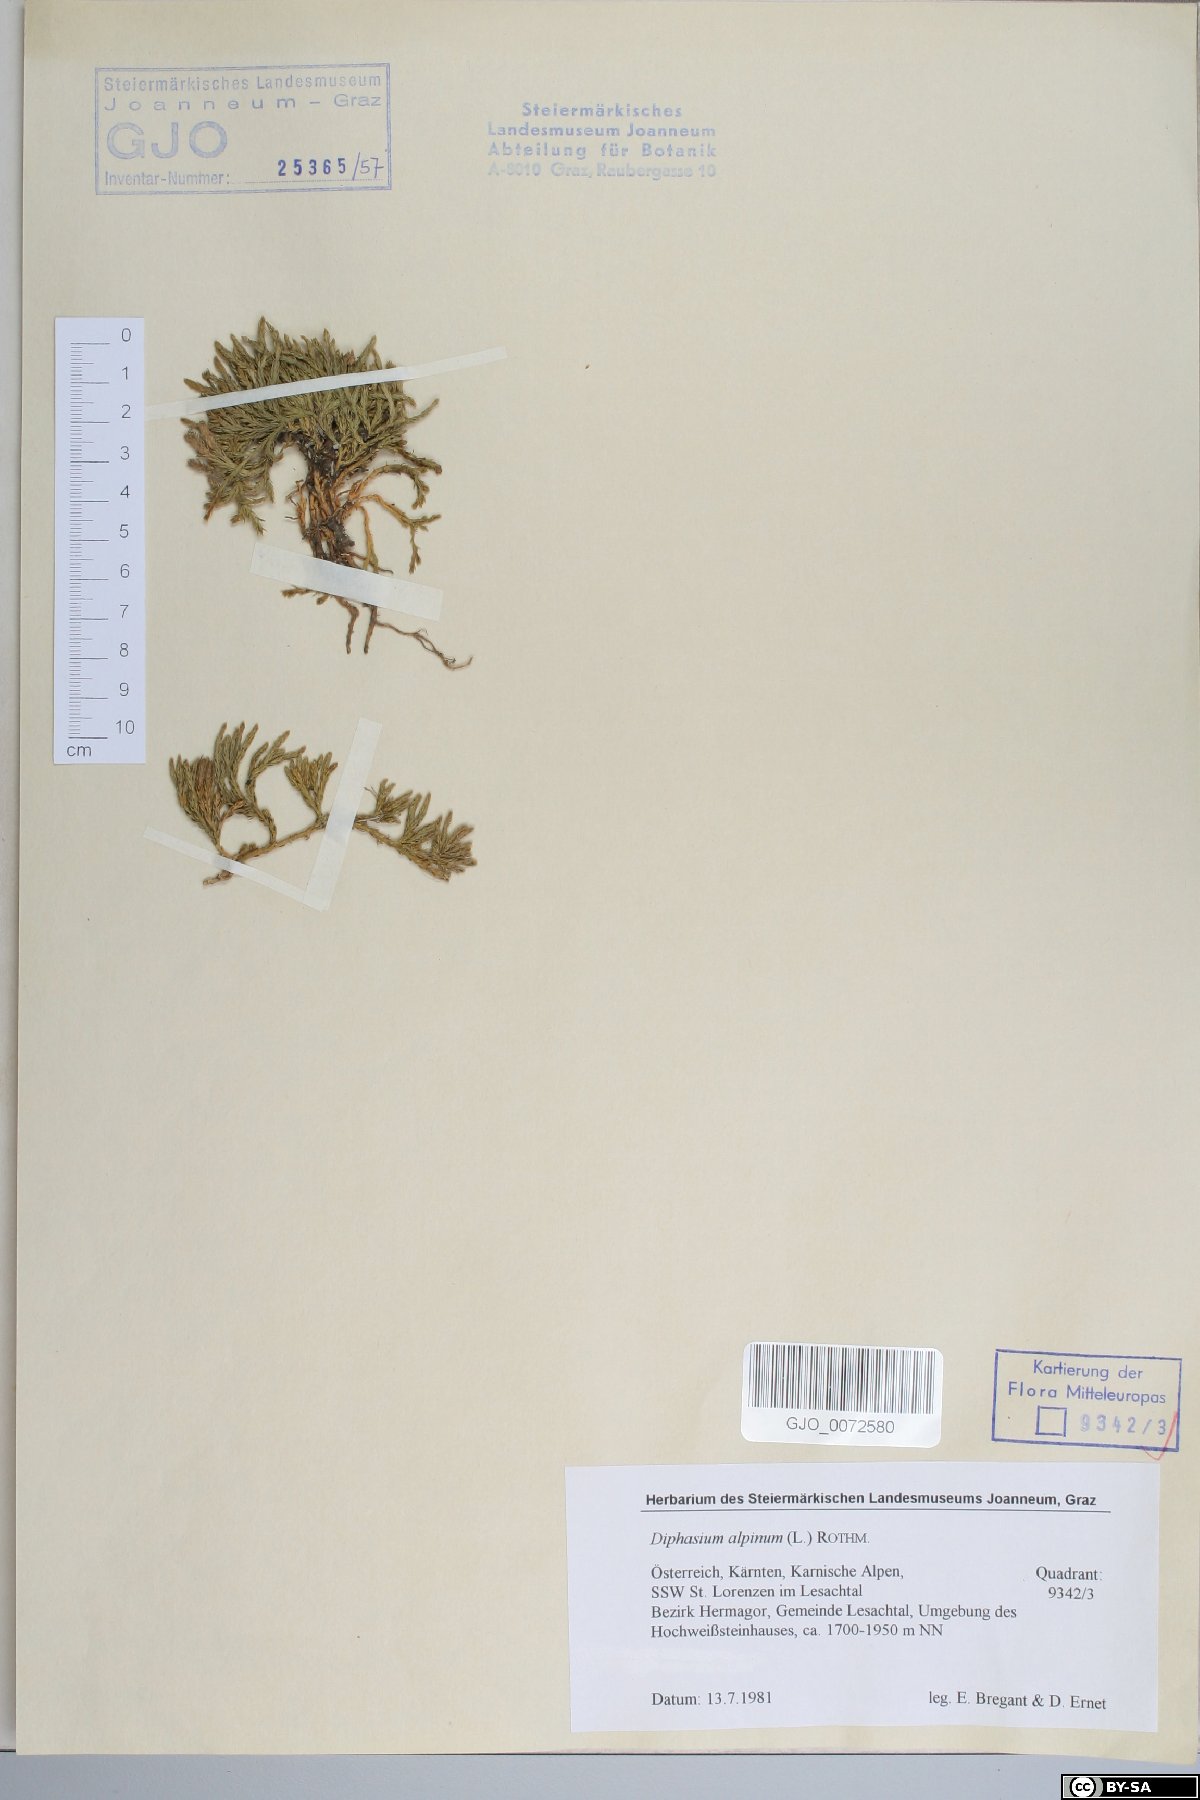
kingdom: Plantae
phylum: Tracheophyta
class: Lycopodiopsida
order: Lycopodiales
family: Lycopodiaceae
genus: Diphasiastrum
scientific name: Diphasiastrum alpinum
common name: Alpine clubmoss
